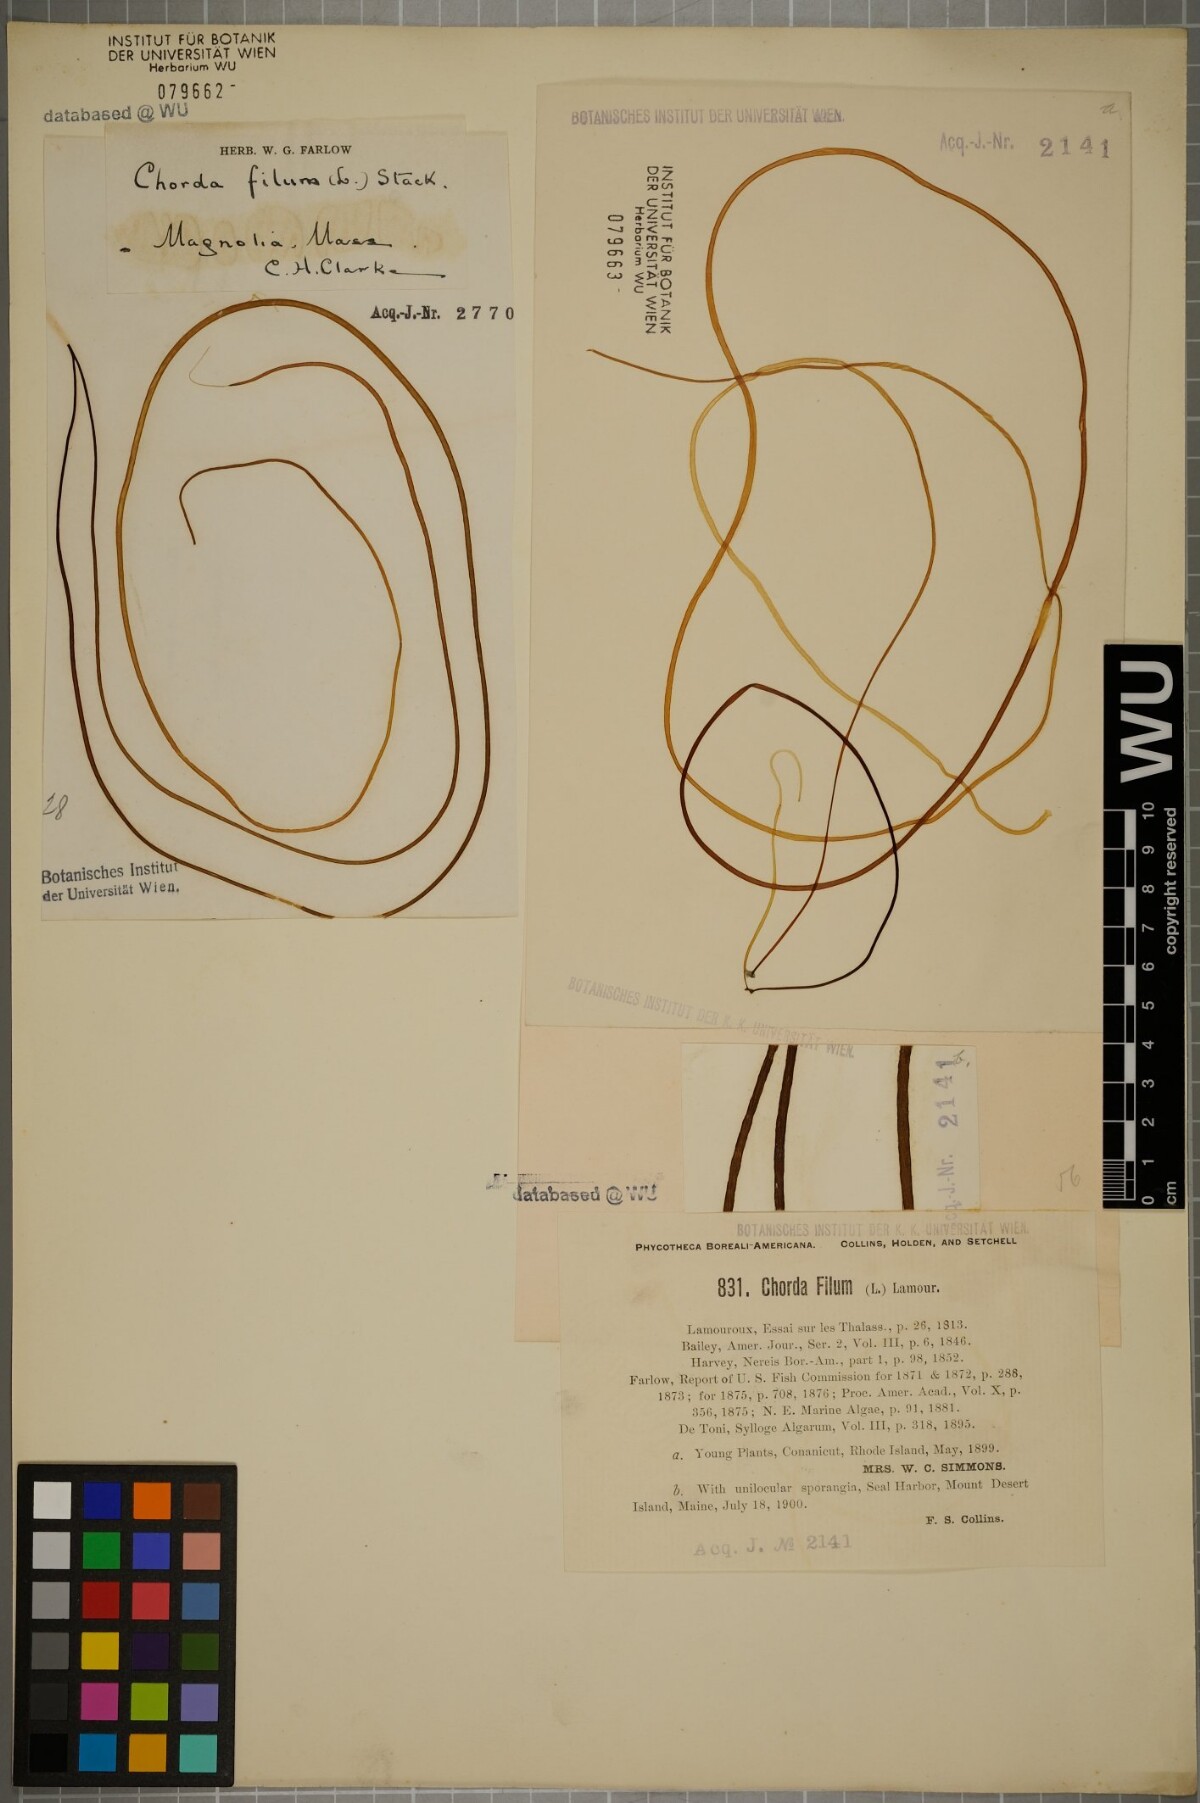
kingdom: Chromista
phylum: Ochrophyta
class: Phaeophyceae
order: Laminariales
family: Chordaceae
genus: Chorda
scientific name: Chorda filum
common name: Mermaid's tresses
